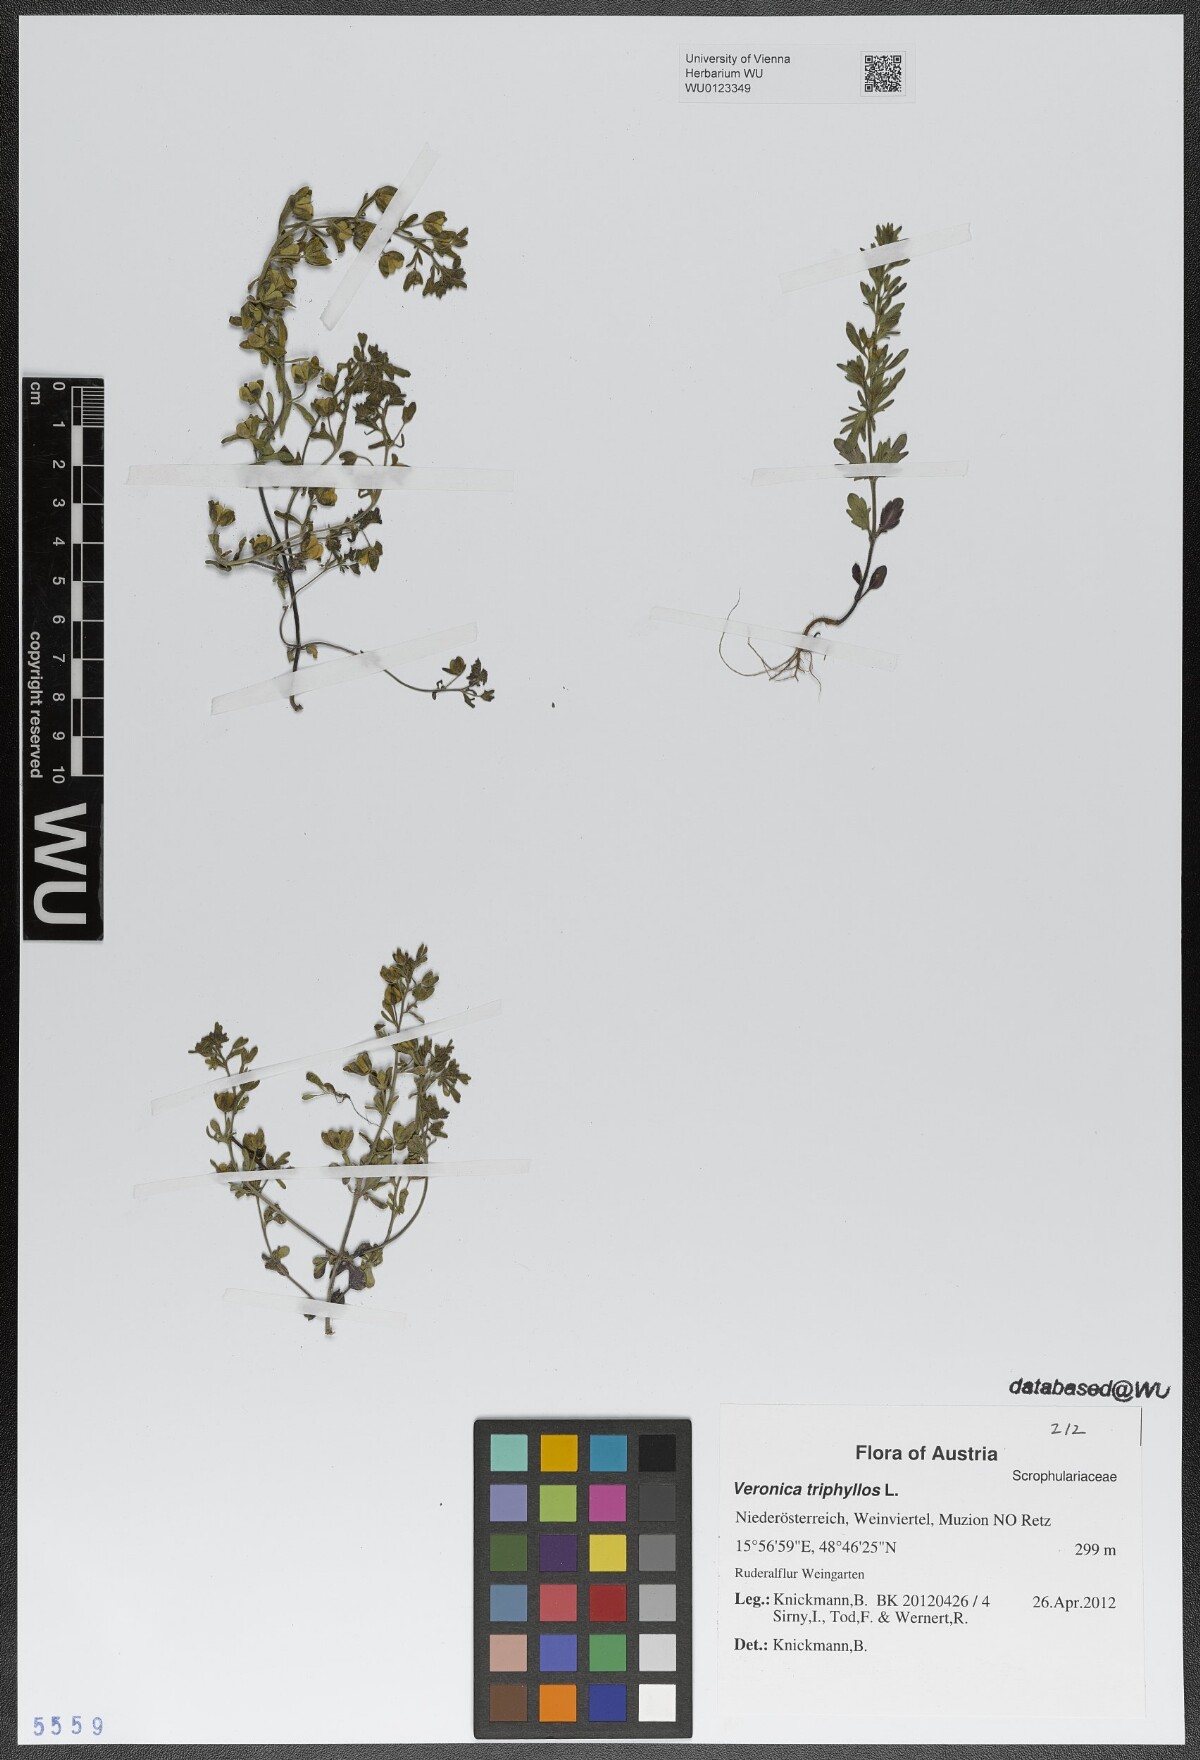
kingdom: Plantae
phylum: Tracheophyta
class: Magnoliopsida
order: Lamiales
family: Plantaginaceae
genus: Veronica
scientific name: Veronica triphyllos
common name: Fingered speedwell
